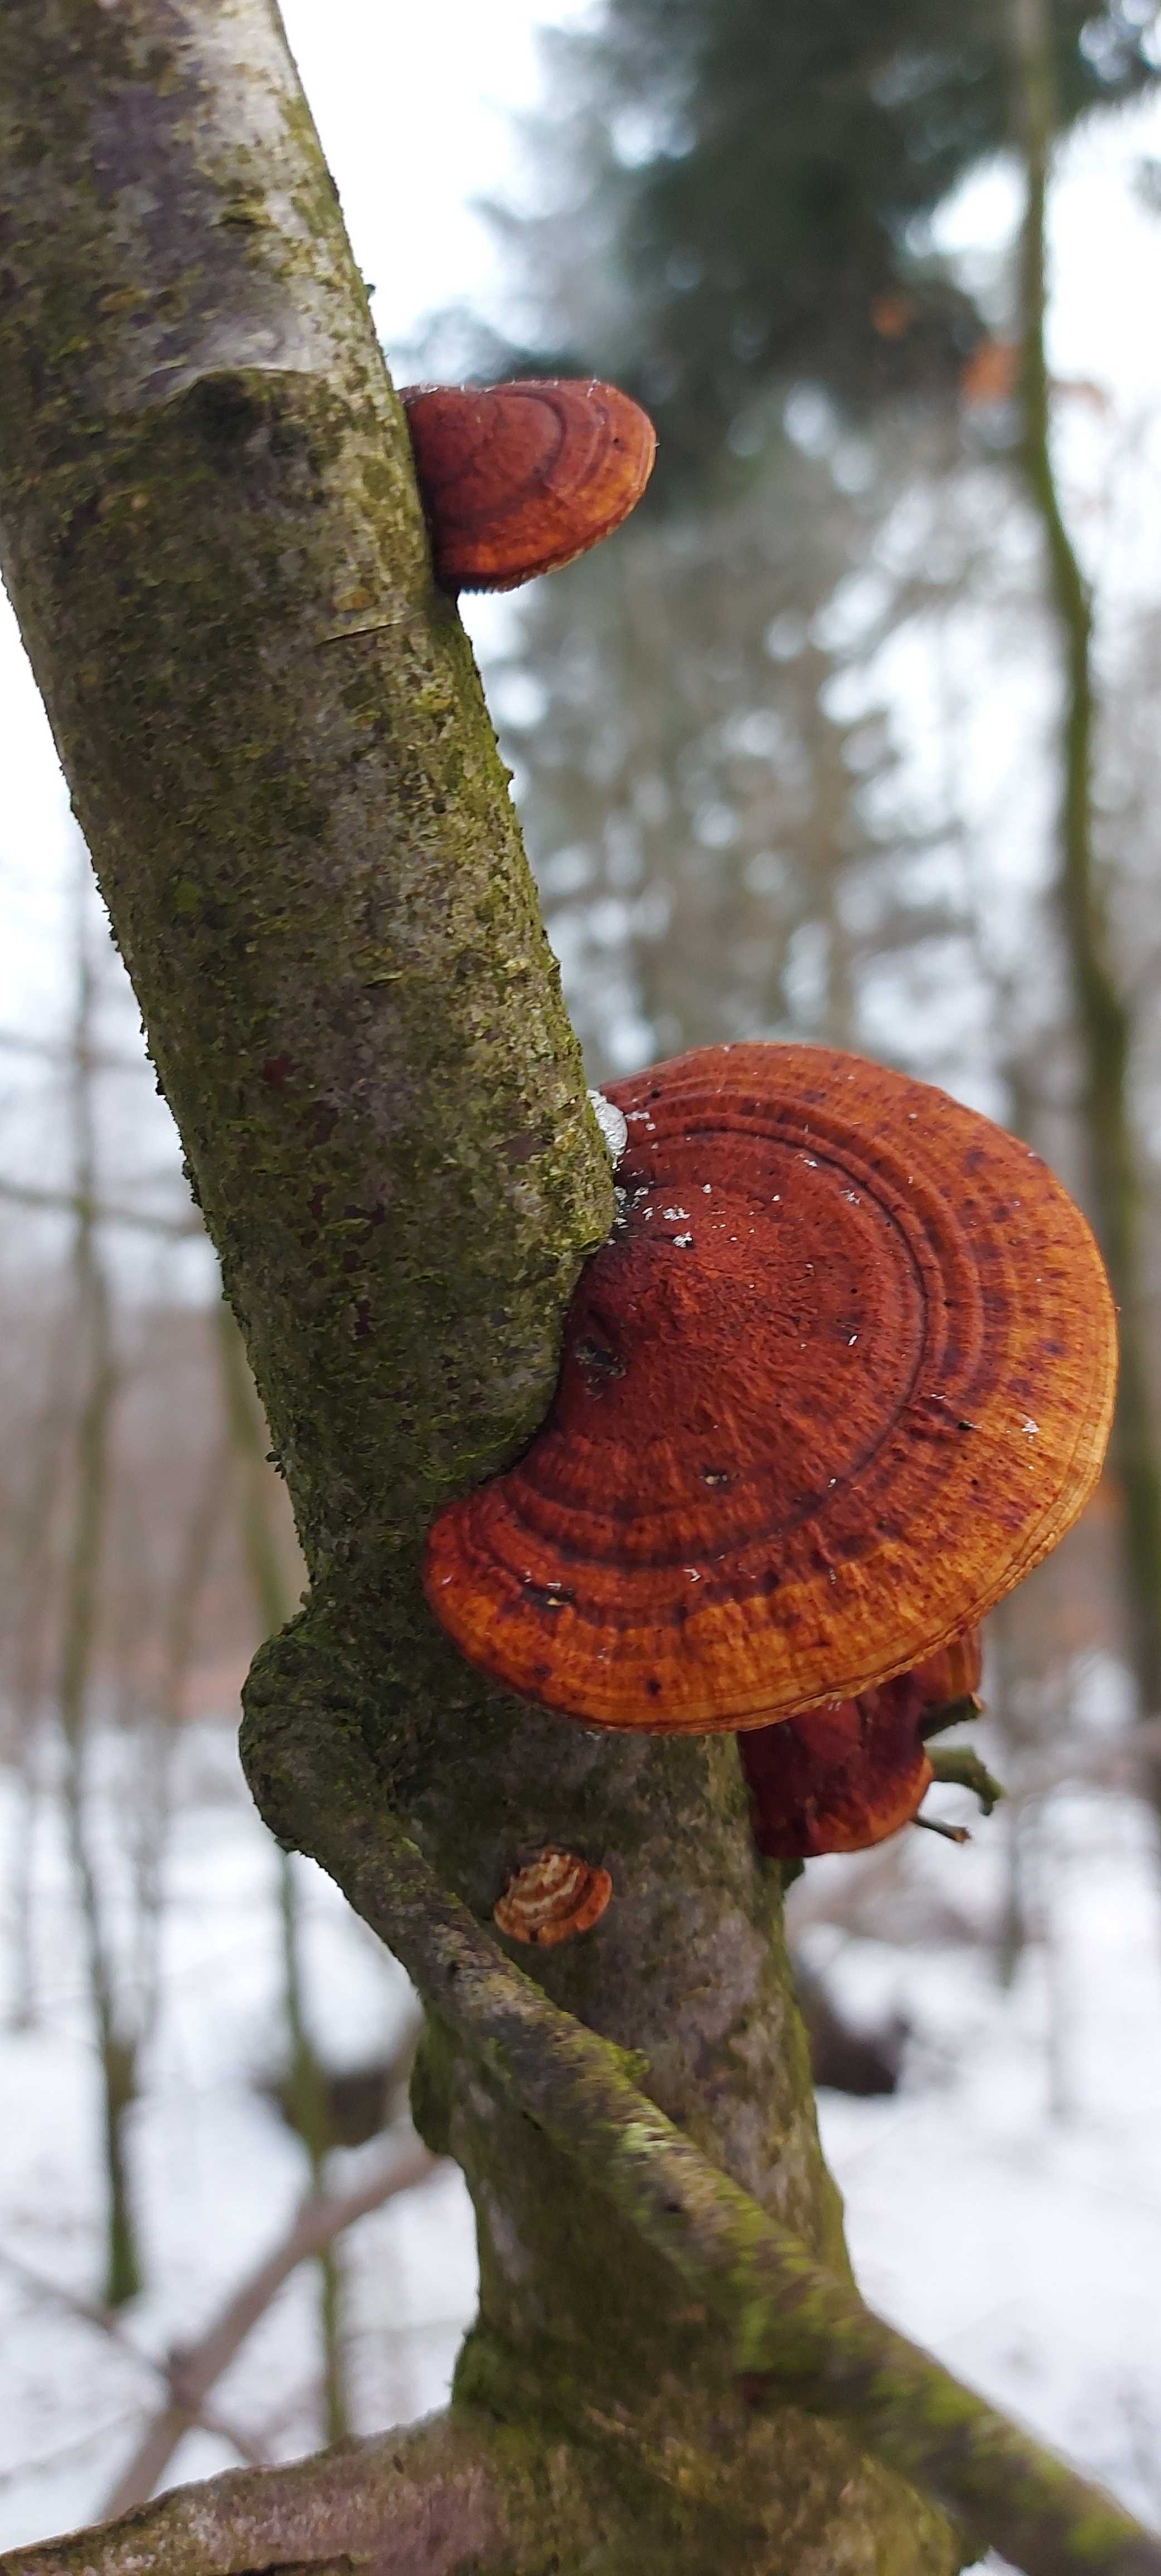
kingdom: Fungi
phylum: Basidiomycota
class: Agaricomycetes
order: Polyporales
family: Polyporaceae
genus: Daedaleopsis
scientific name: Daedaleopsis confragosa
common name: rødmende læderporesvamp
